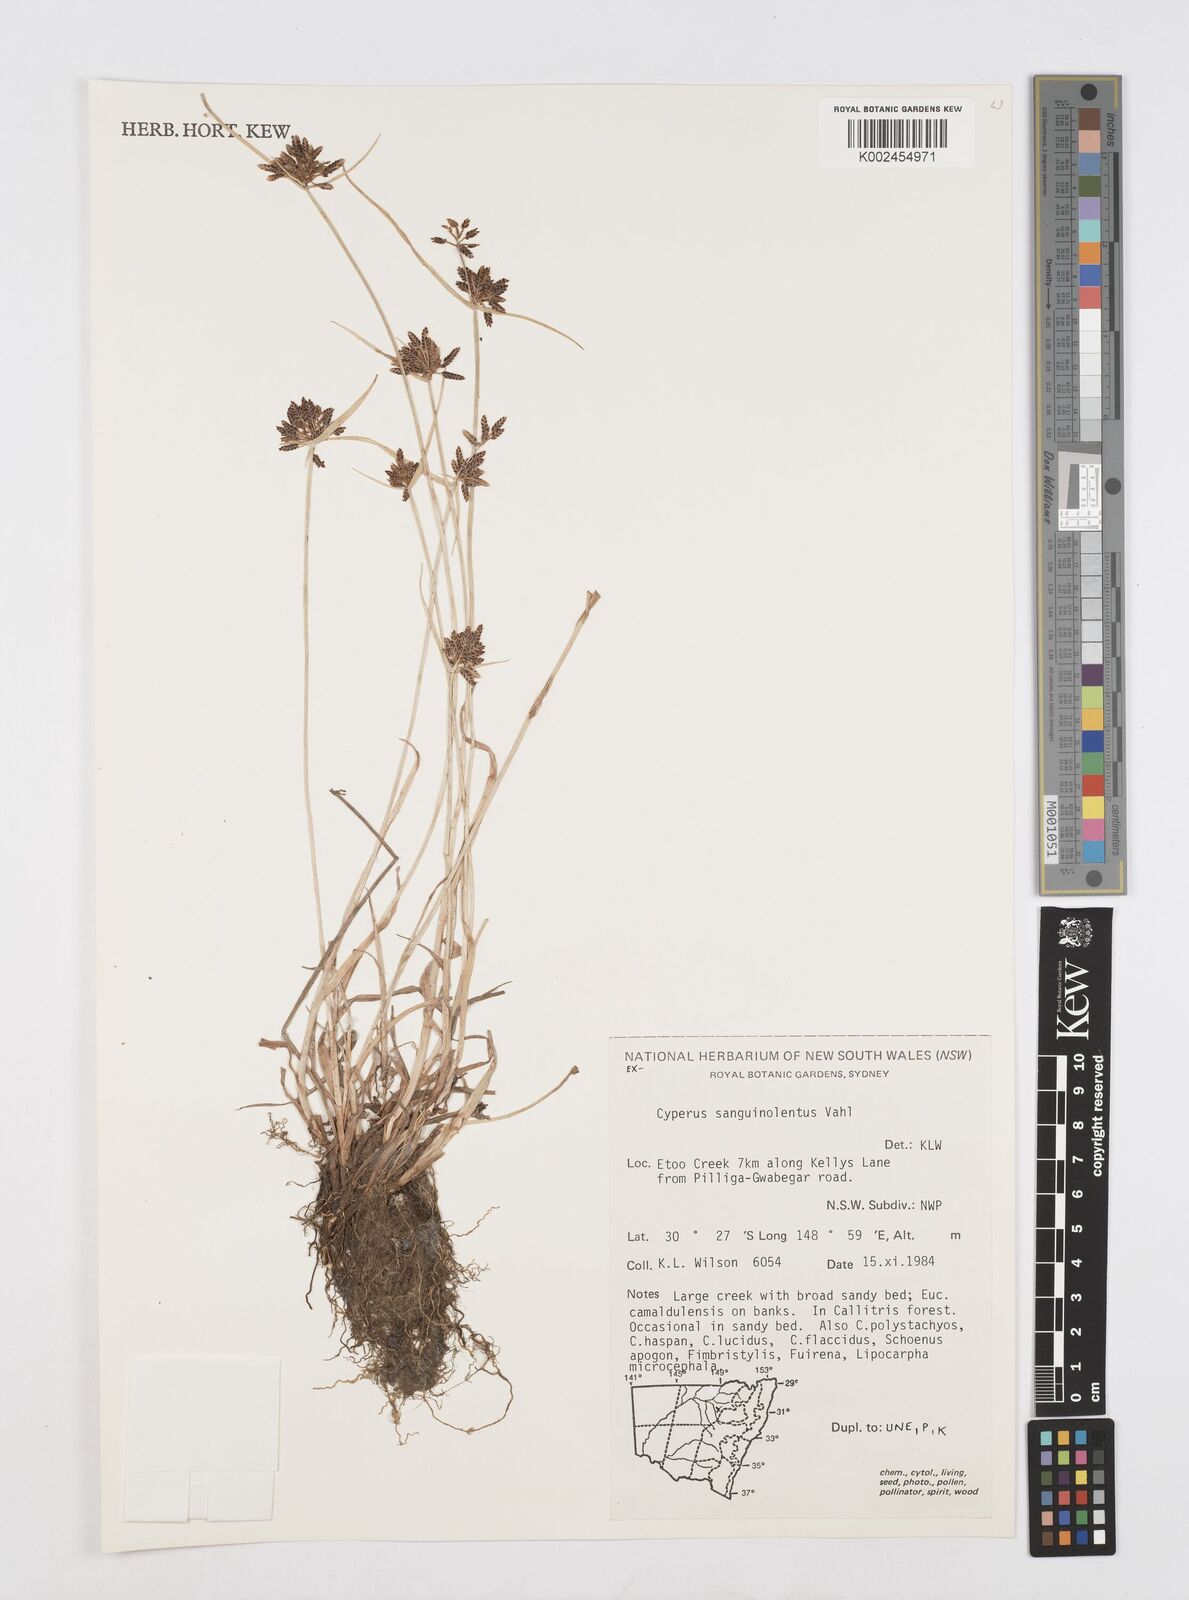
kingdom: Plantae
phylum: Tracheophyta
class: Liliopsida
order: Poales
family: Cyperaceae
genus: Cyperus
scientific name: Cyperus sanguinolentus
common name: Purpleglume flatsedge
